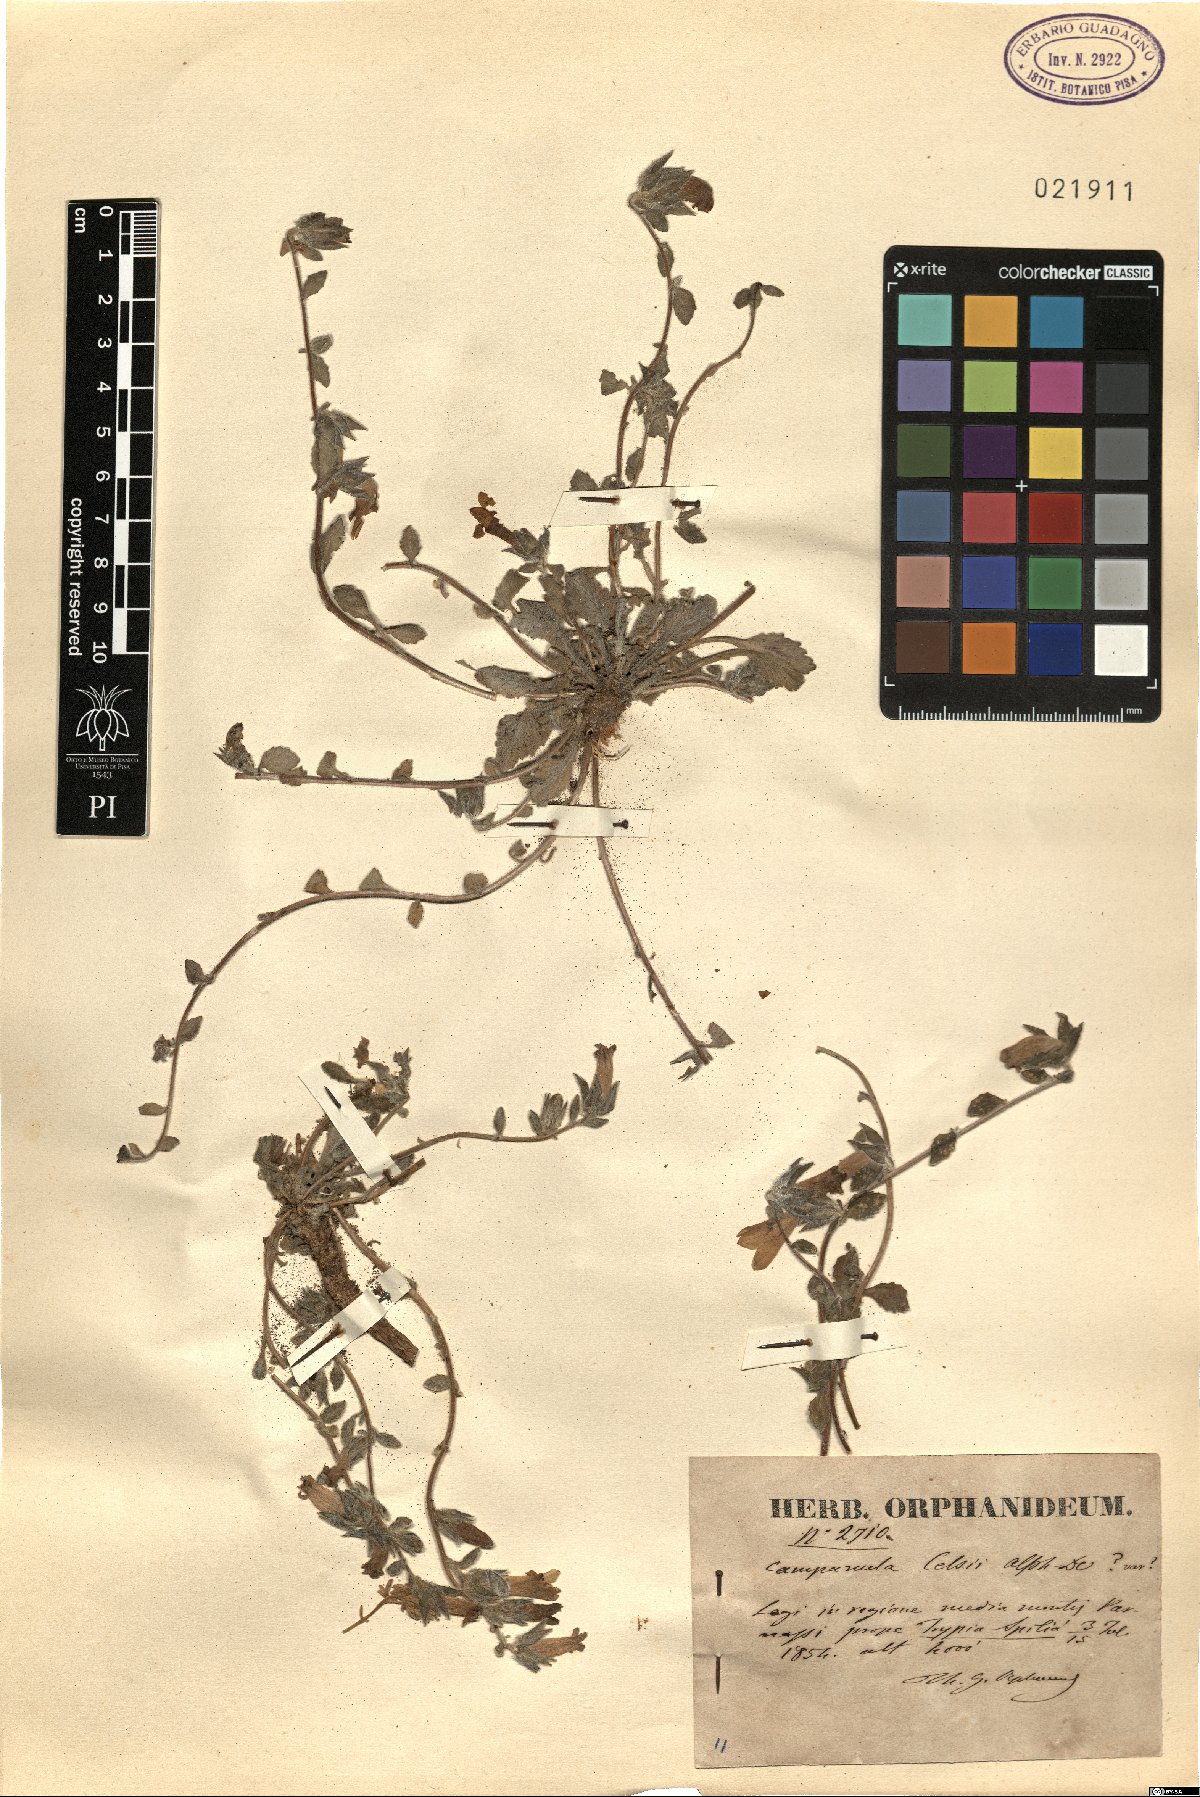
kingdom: Plantae
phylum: Tracheophyta
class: Magnoliopsida
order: Asterales
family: Campanulaceae
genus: Campanula
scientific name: Campanula celsii
